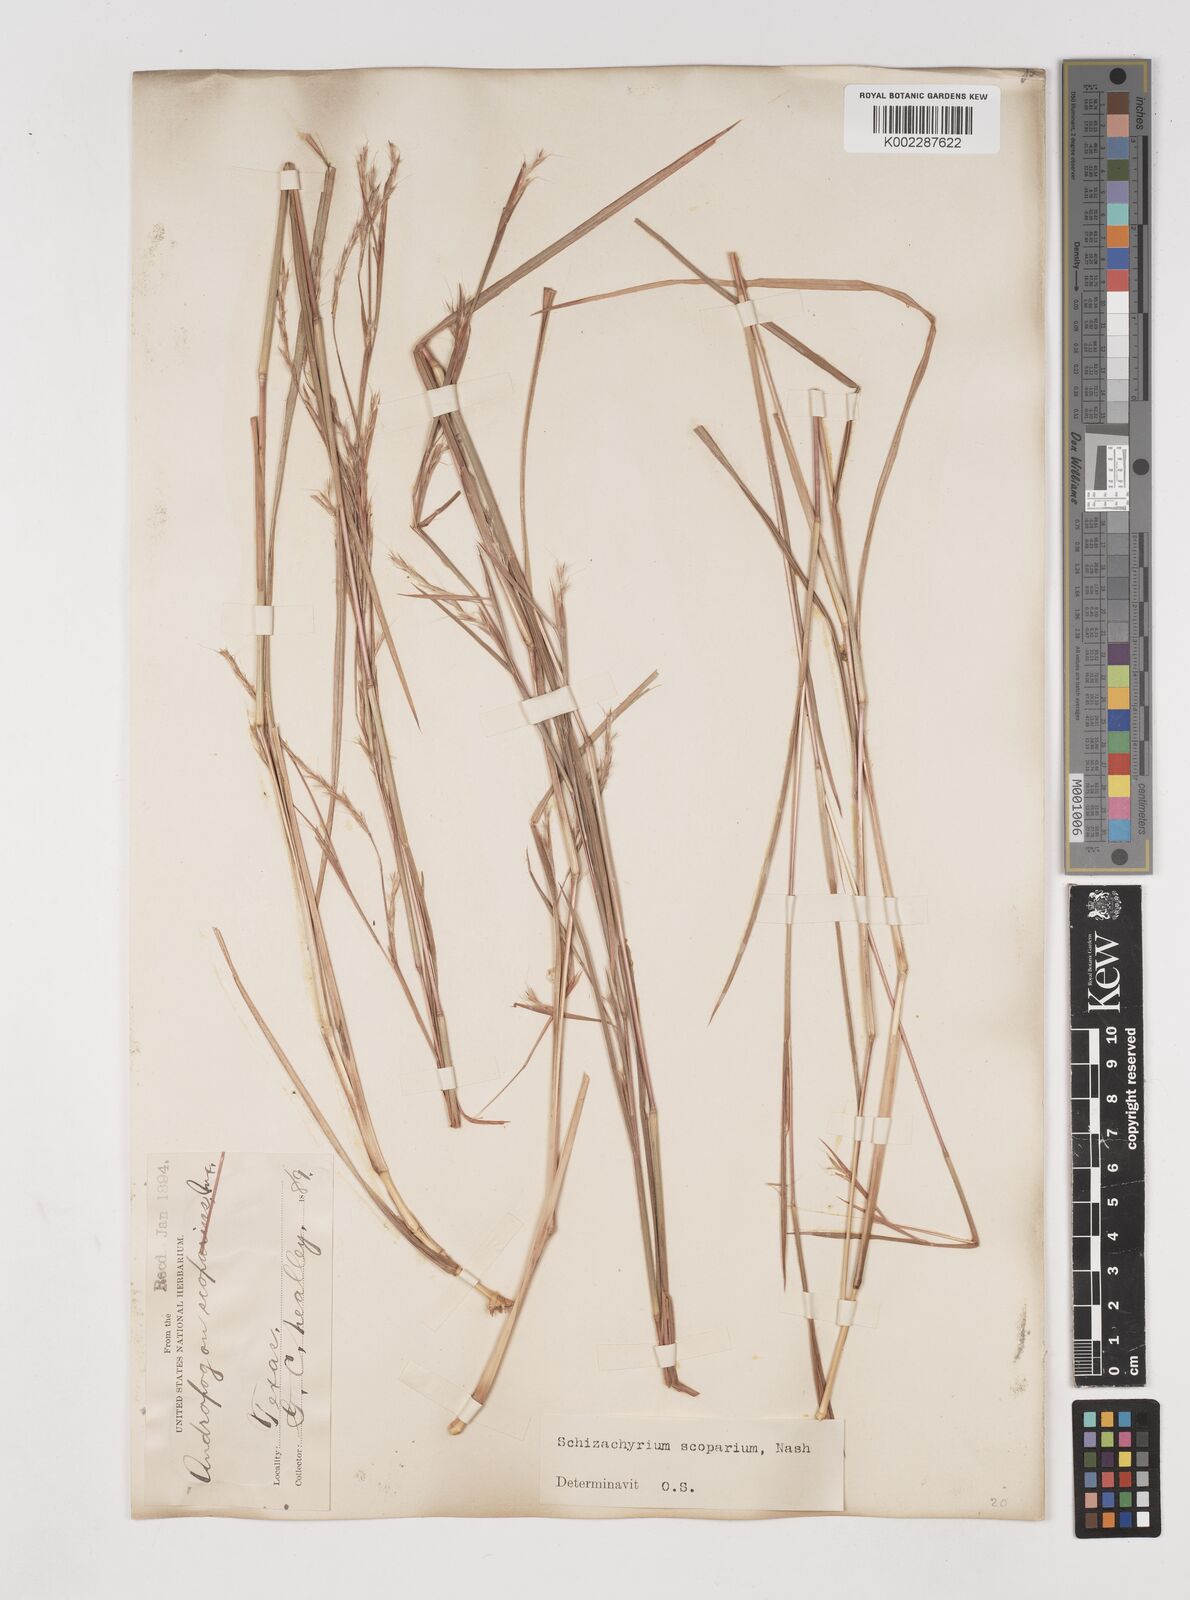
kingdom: Plantae
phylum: Tracheophyta
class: Liliopsida
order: Poales
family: Poaceae
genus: Schizachyrium
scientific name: Schizachyrium scoparium
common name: Little bluestem
